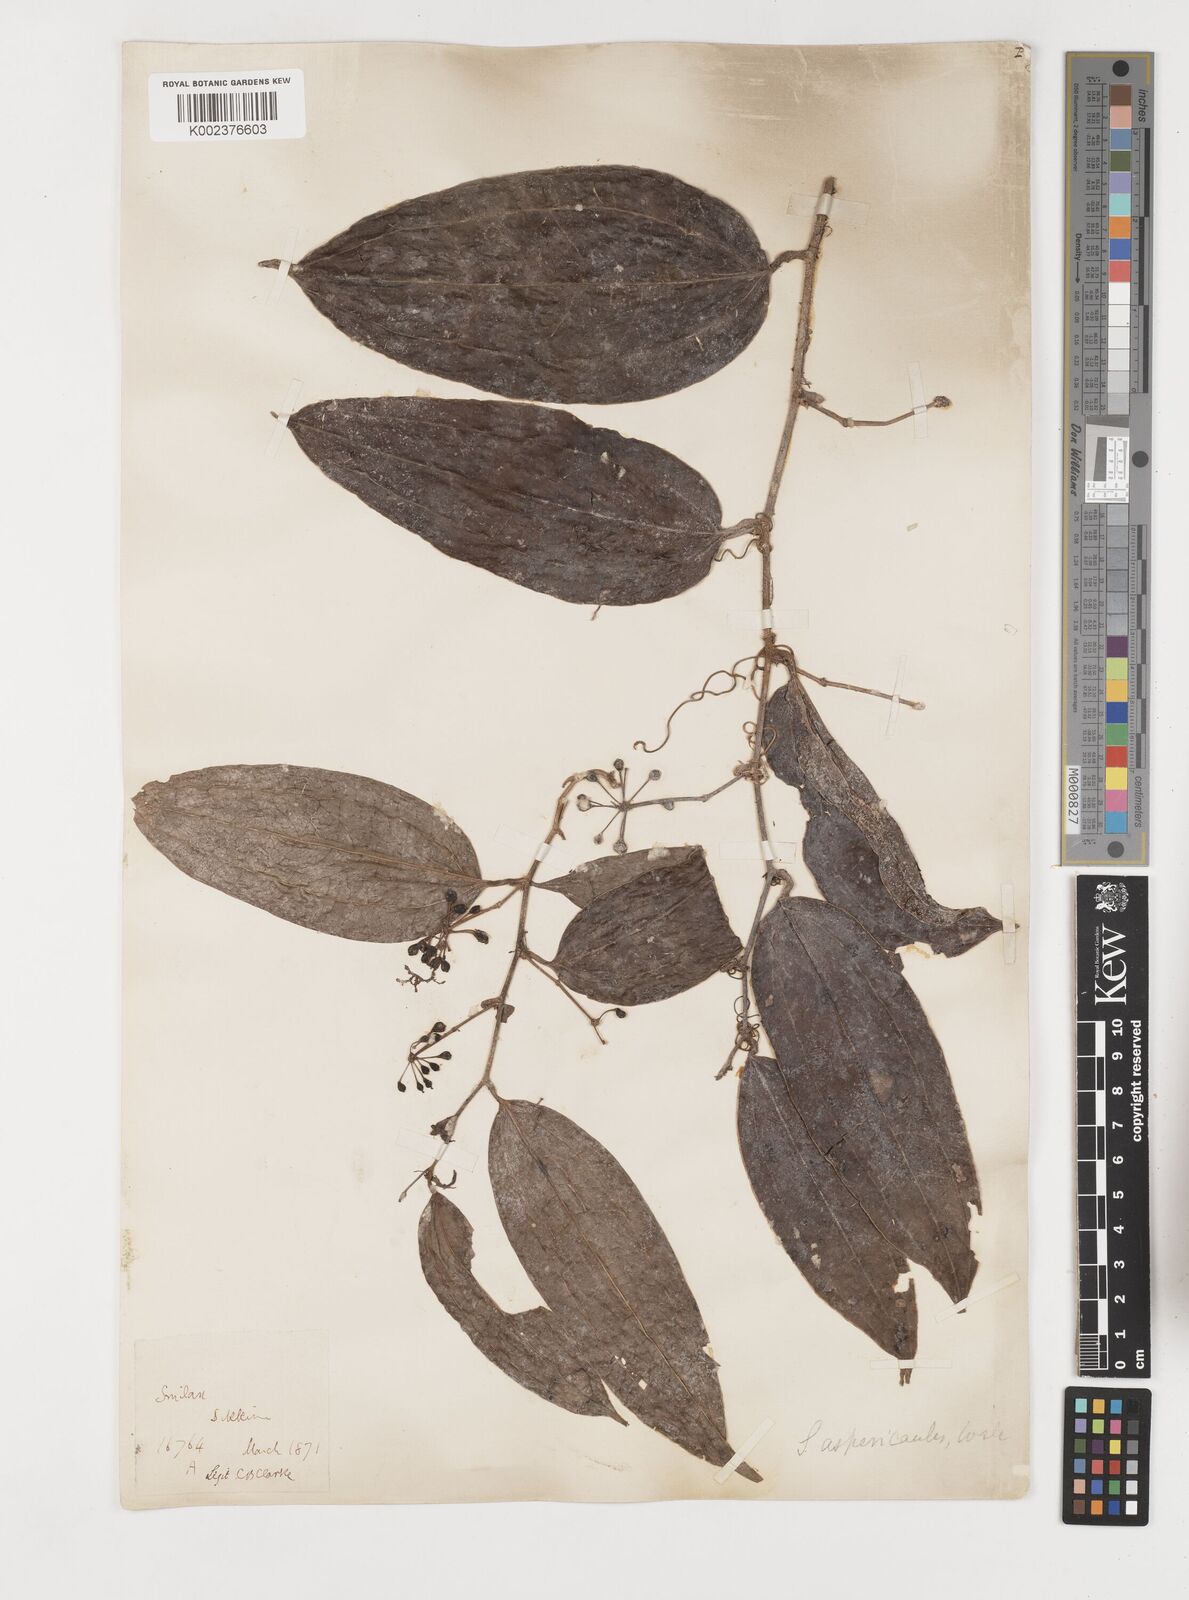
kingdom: Plantae
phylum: Tracheophyta
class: Liliopsida
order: Liliales
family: Smilacaceae
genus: Smilax
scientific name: Smilax aspericaulis
